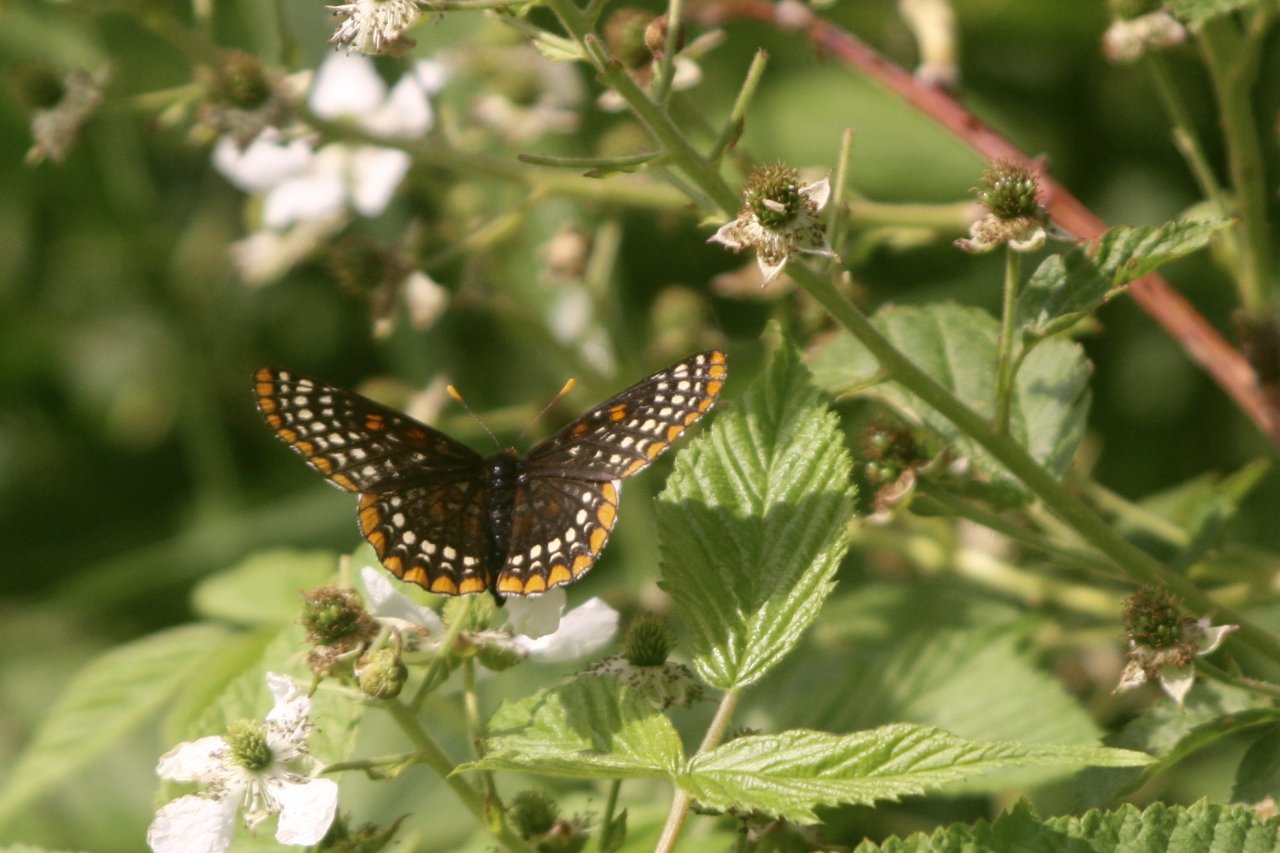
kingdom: Animalia
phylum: Arthropoda
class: Insecta
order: Lepidoptera
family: Nymphalidae
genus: Euphydryas
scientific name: Euphydryas phaeton
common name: Baltimore Checkerspot
